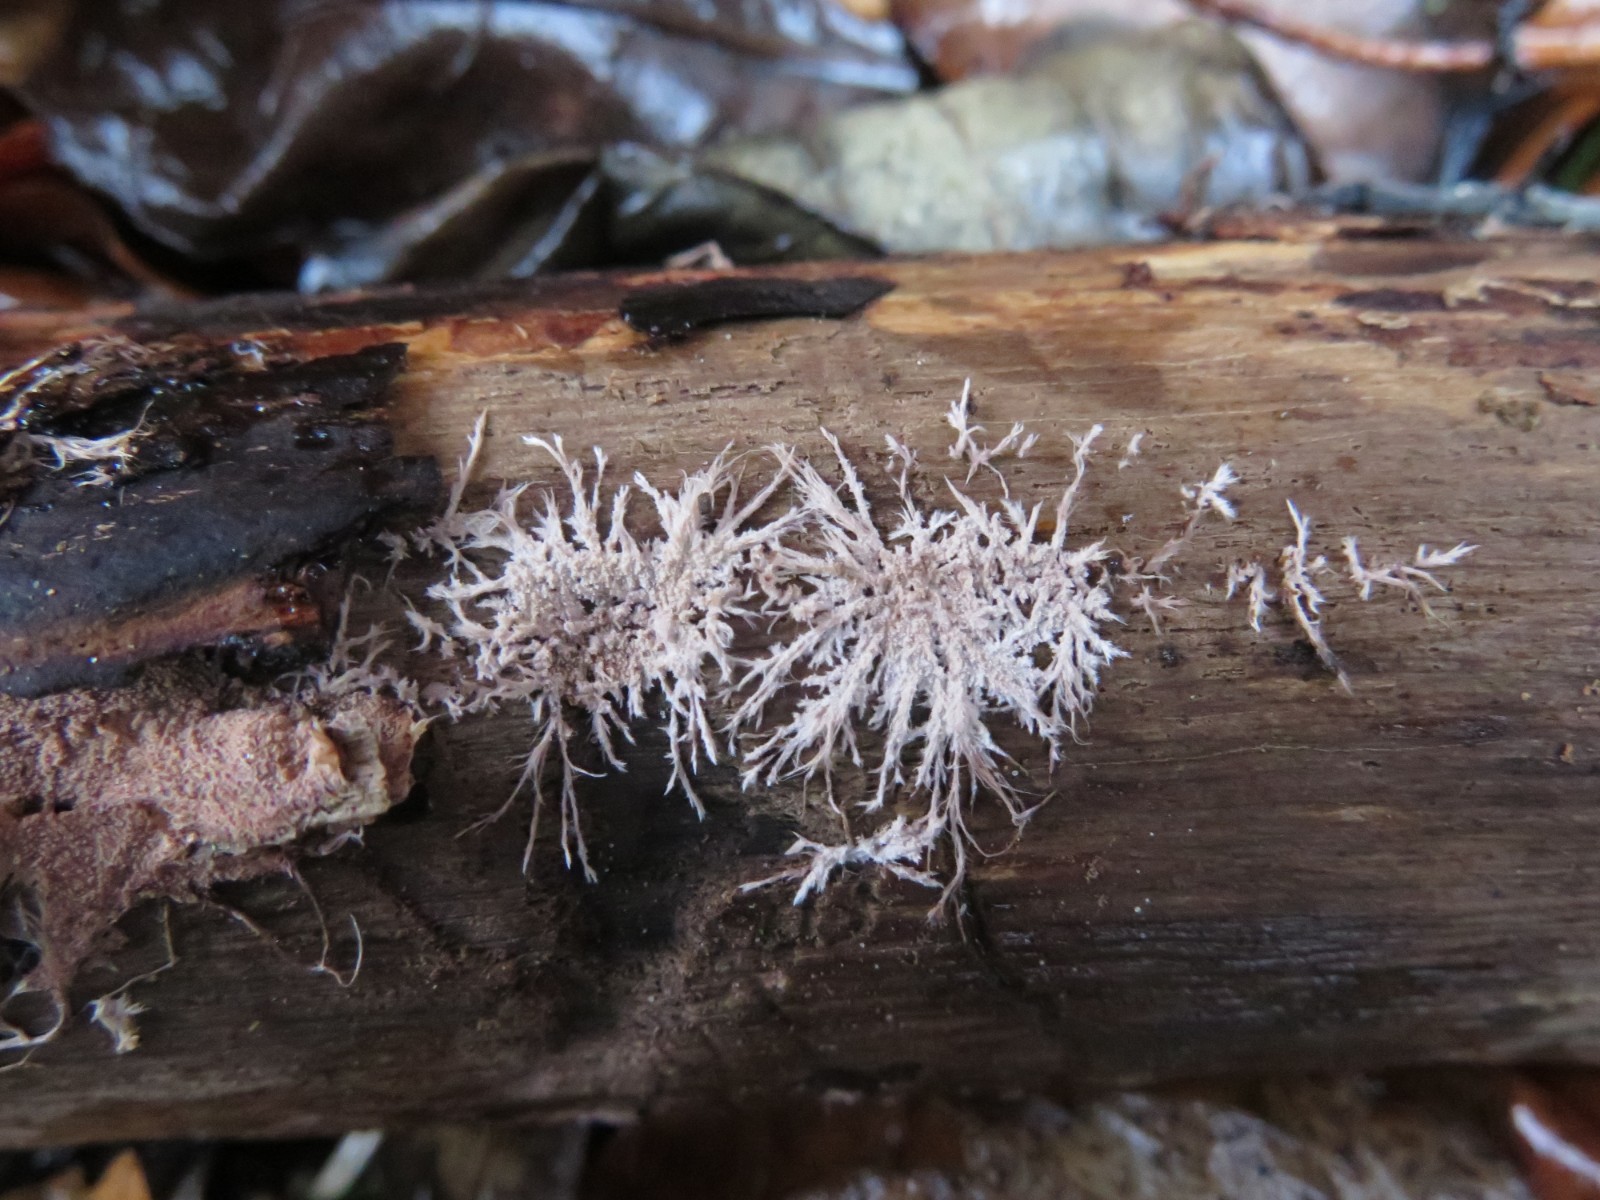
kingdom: Fungi
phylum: Basidiomycota
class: Agaricomycetes
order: Polyporales
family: Steccherinaceae
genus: Steccherinum
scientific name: Steccherinum fimbriatum
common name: trådet skønpig
